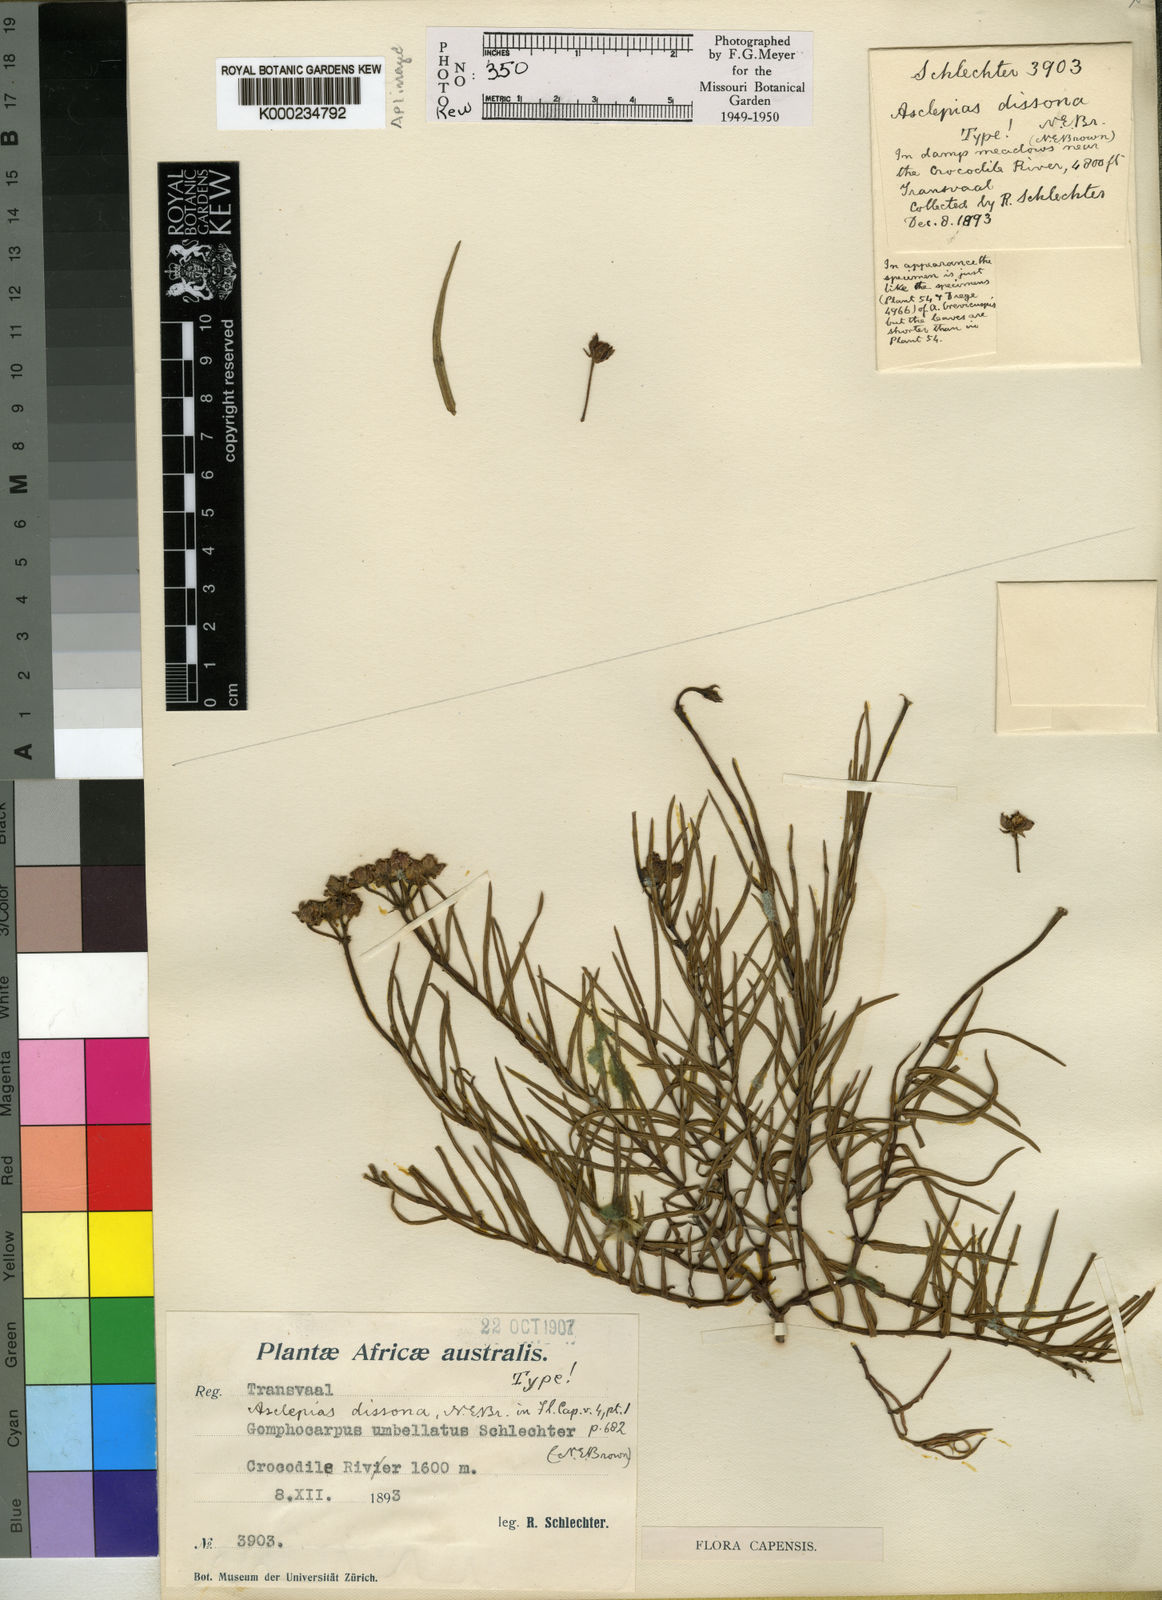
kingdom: Plantae
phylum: Tracheophyta
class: Magnoliopsida
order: Gentianales
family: Apocynaceae
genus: Asclepias
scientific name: Asclepias dissona
